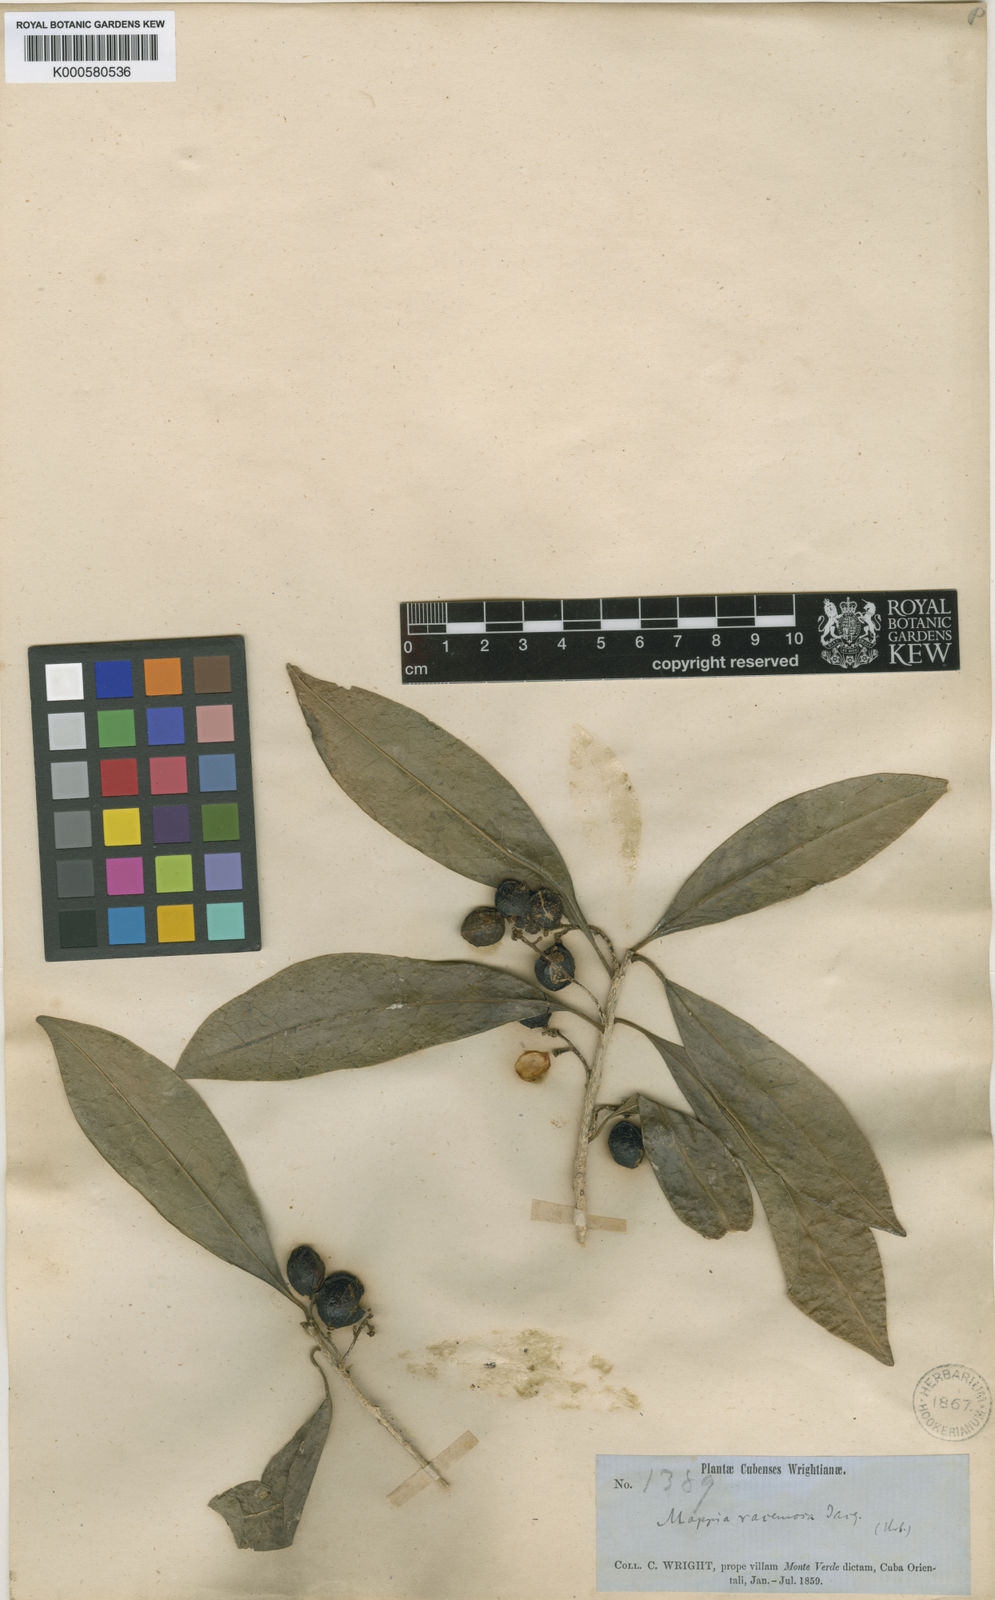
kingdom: Plantae
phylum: Tracheophyta
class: Magnoliopsida
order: Icacinales
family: Icacinaceae
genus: Mappia
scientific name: Mappia racemosa
